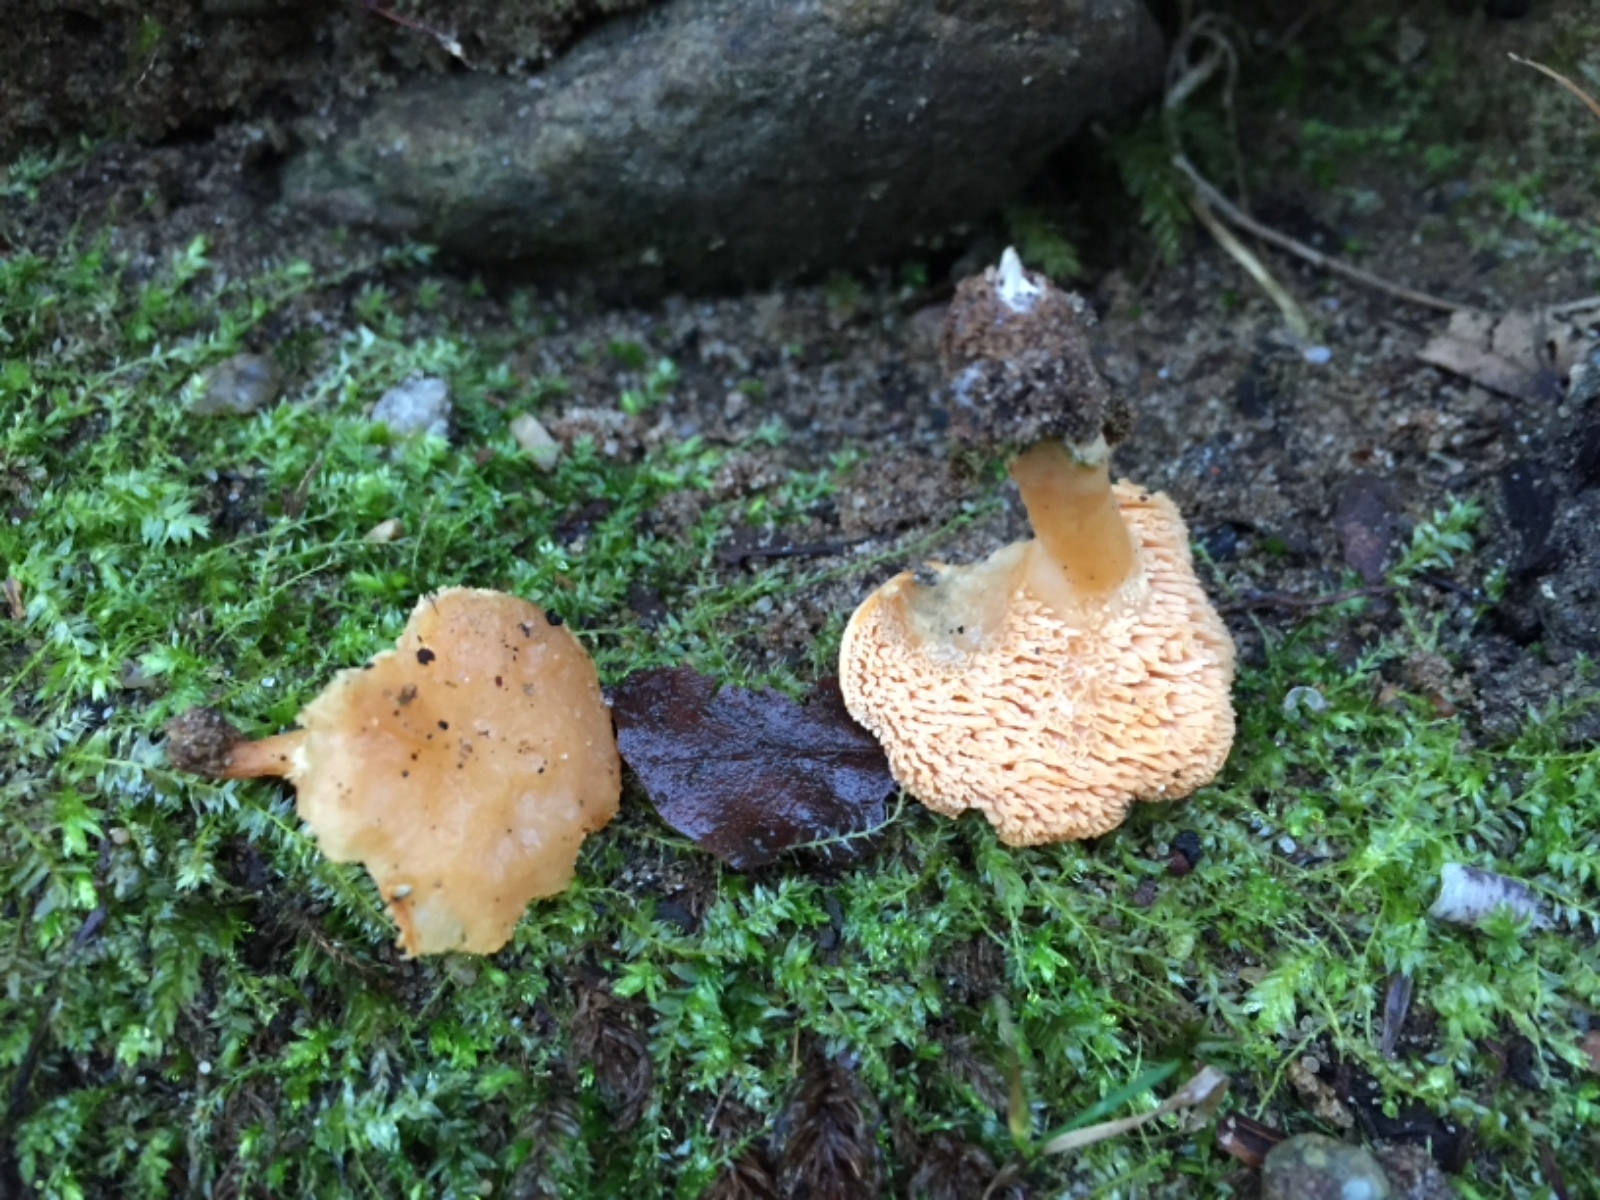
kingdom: Fungi
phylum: Basidiomycota
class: Agaricomycetes
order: Cantharellales
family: Hydnaceae
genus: Hydnum
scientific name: Hydnum
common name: pigsvamp
